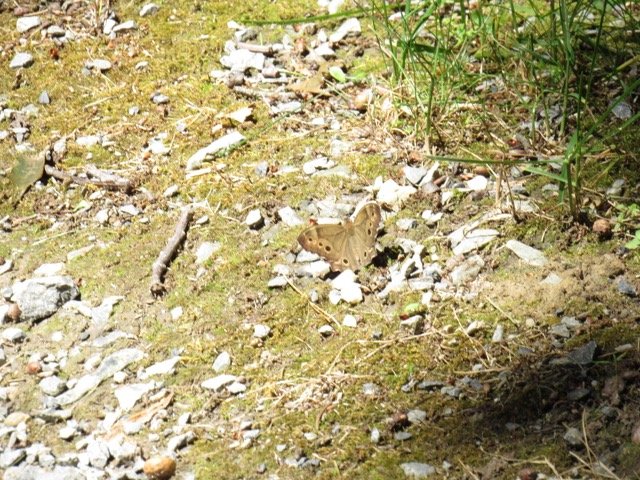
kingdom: Animalia
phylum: Arthropoda
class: Insecta
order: Lepidoptera
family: Nymphalidae
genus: Lethe
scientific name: Lethe anthedon
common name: Northern Pearly-Eye
